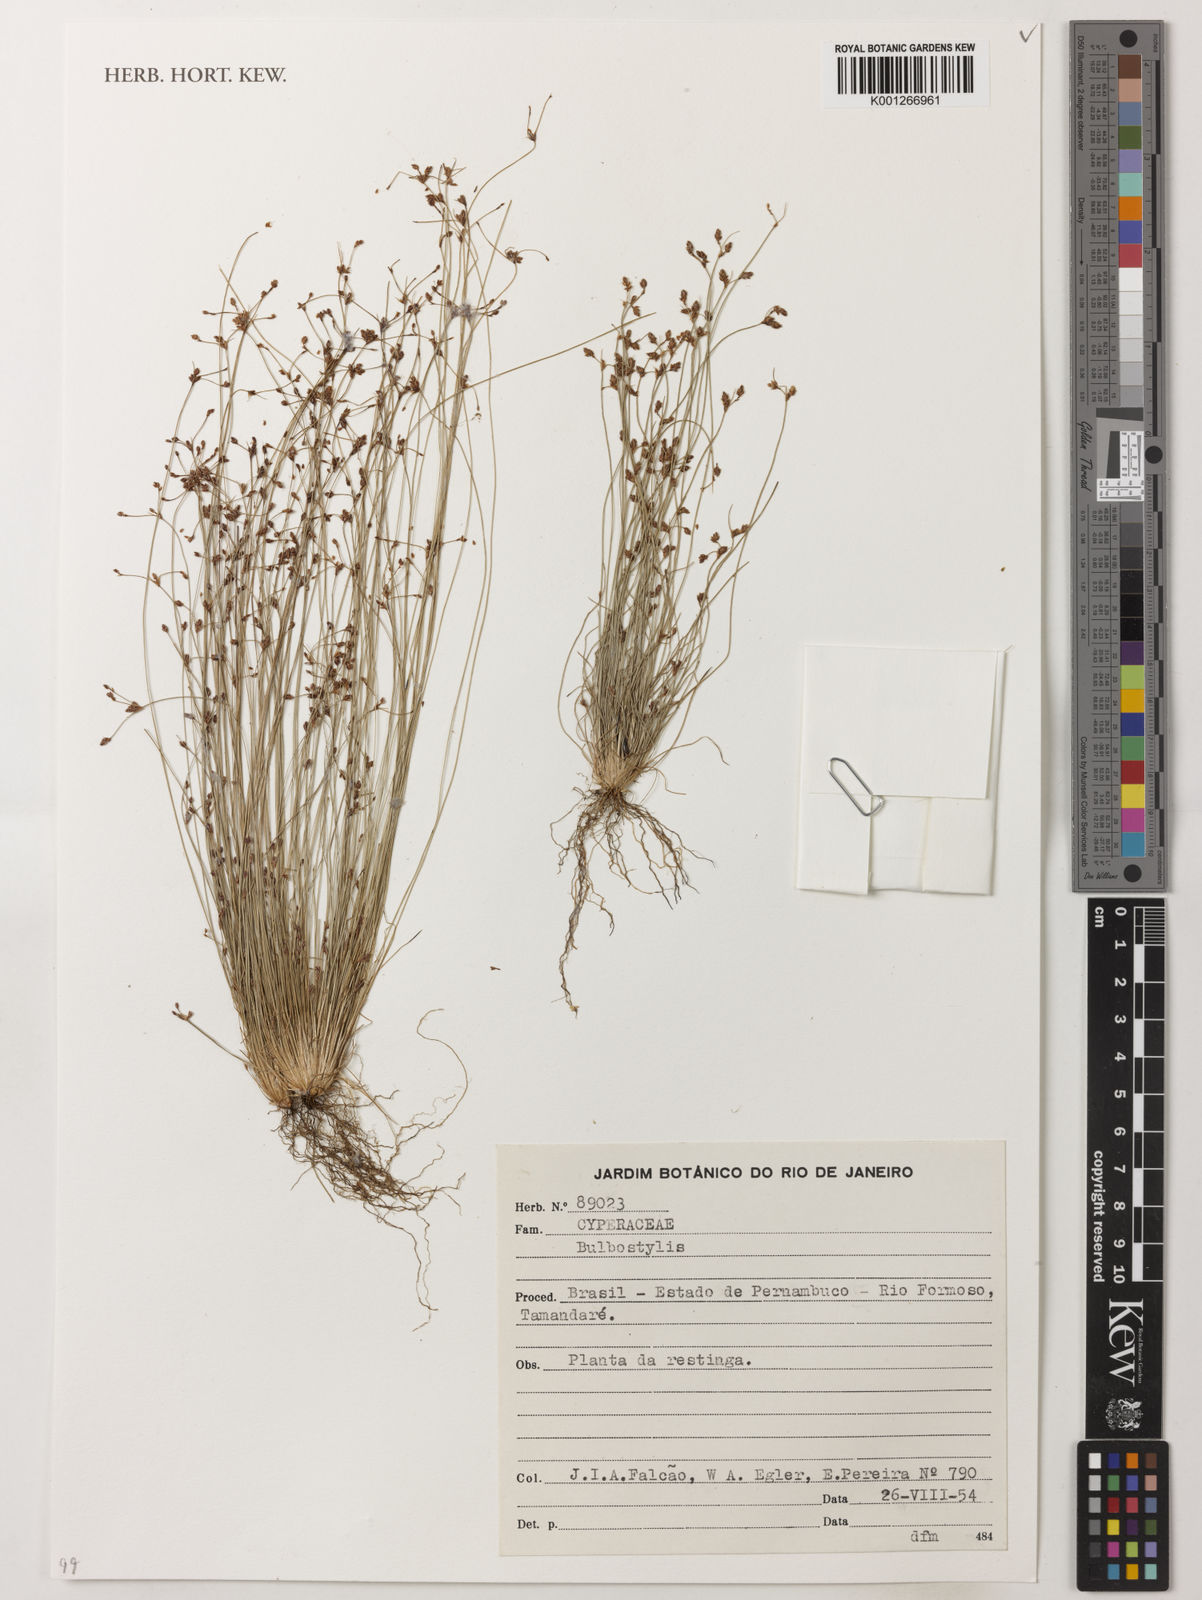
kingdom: Plantae
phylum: Tracheophyta
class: Liliopsida
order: Poales
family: Cyperaceae
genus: Bulbostylis
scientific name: Bulbostylis
